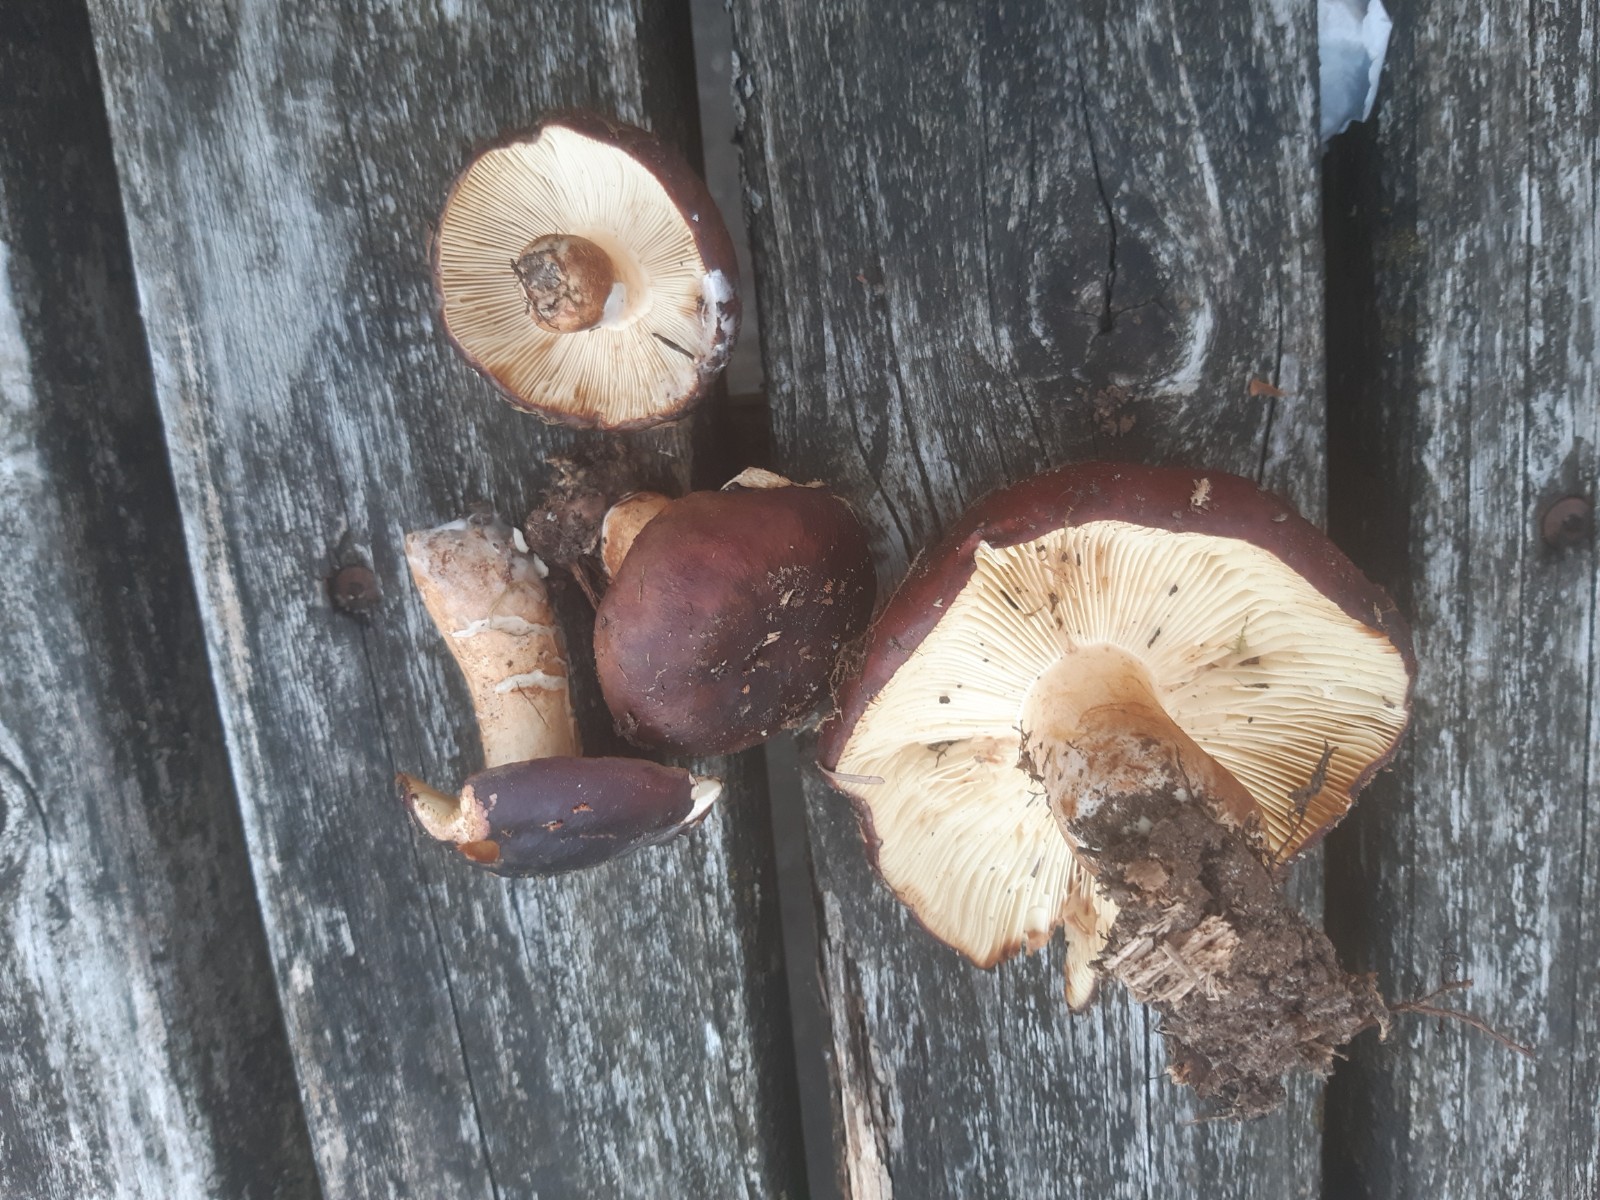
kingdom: Fungi
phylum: Basidiomycota
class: Agaricomycetes
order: Russulales
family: Russulaceae
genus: Russula
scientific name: Russula viscida
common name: knippe-skørhat
